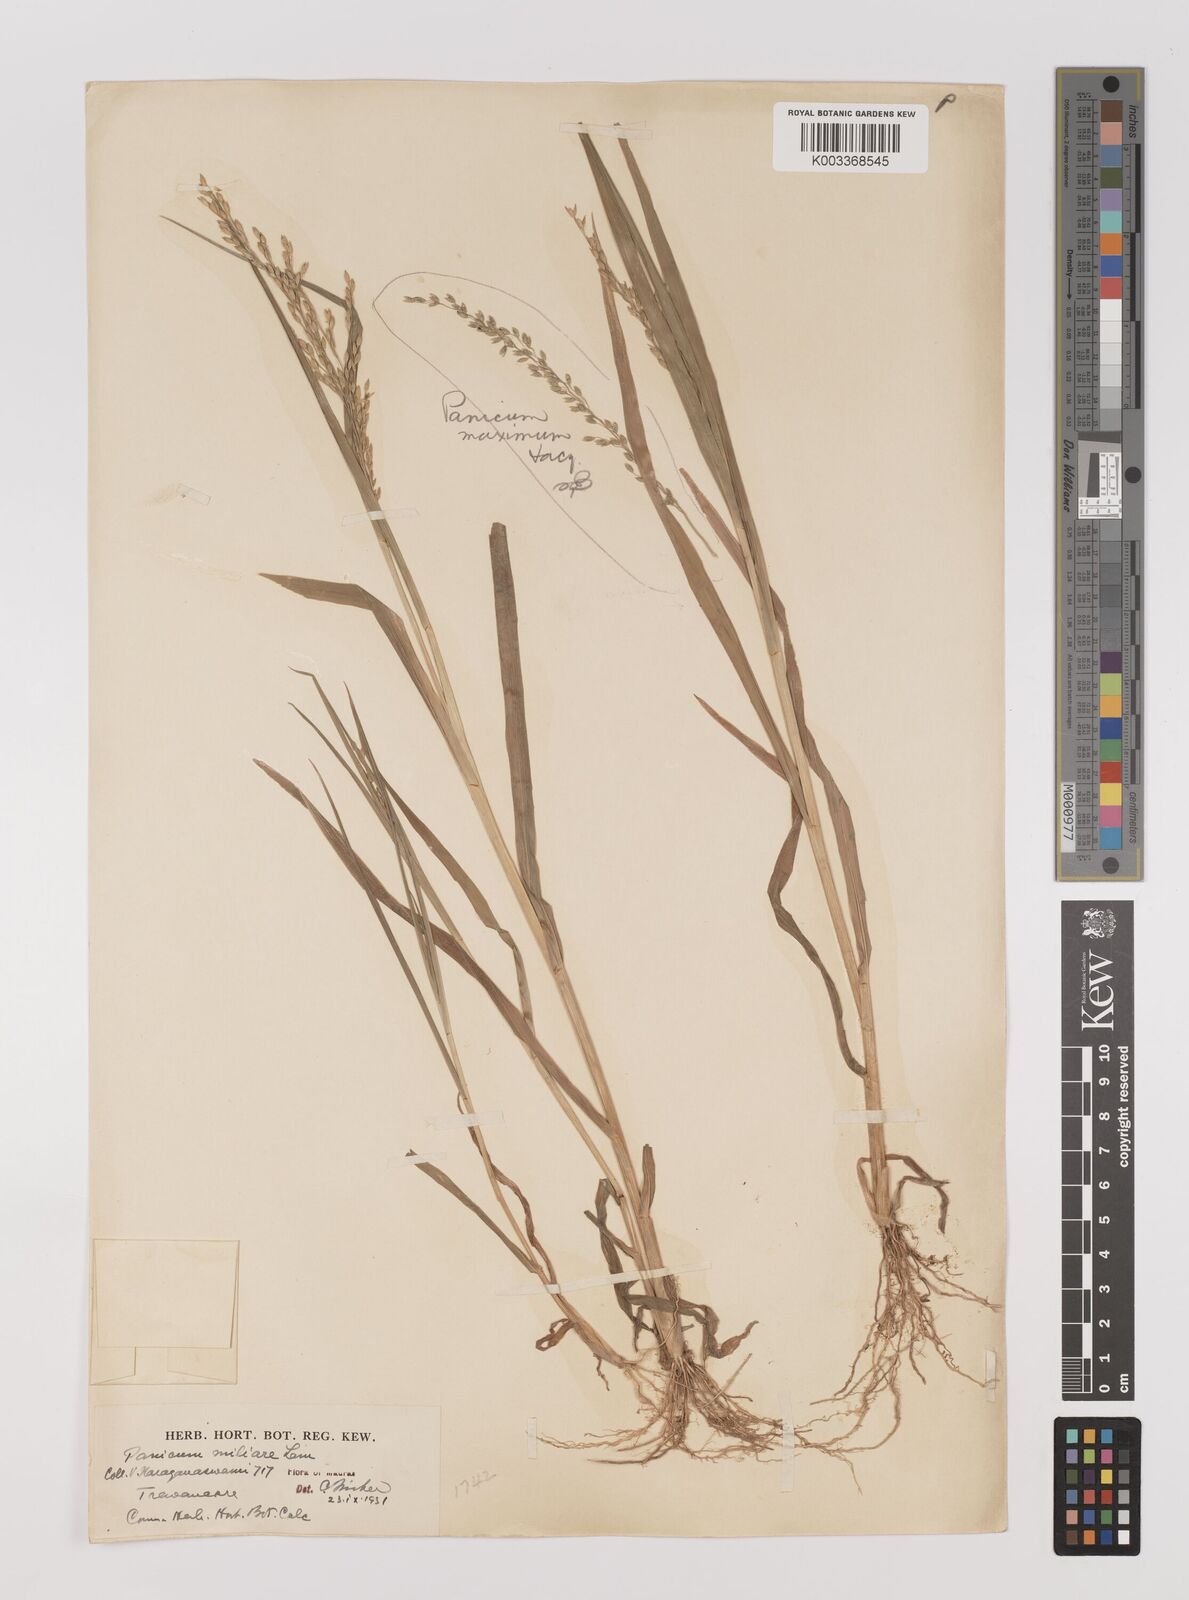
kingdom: Plantae
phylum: Tracheophyta
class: Liliopsida
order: Poales
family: Poaceae
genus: Panicum
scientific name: Panicum sumatrense
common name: Little millet
